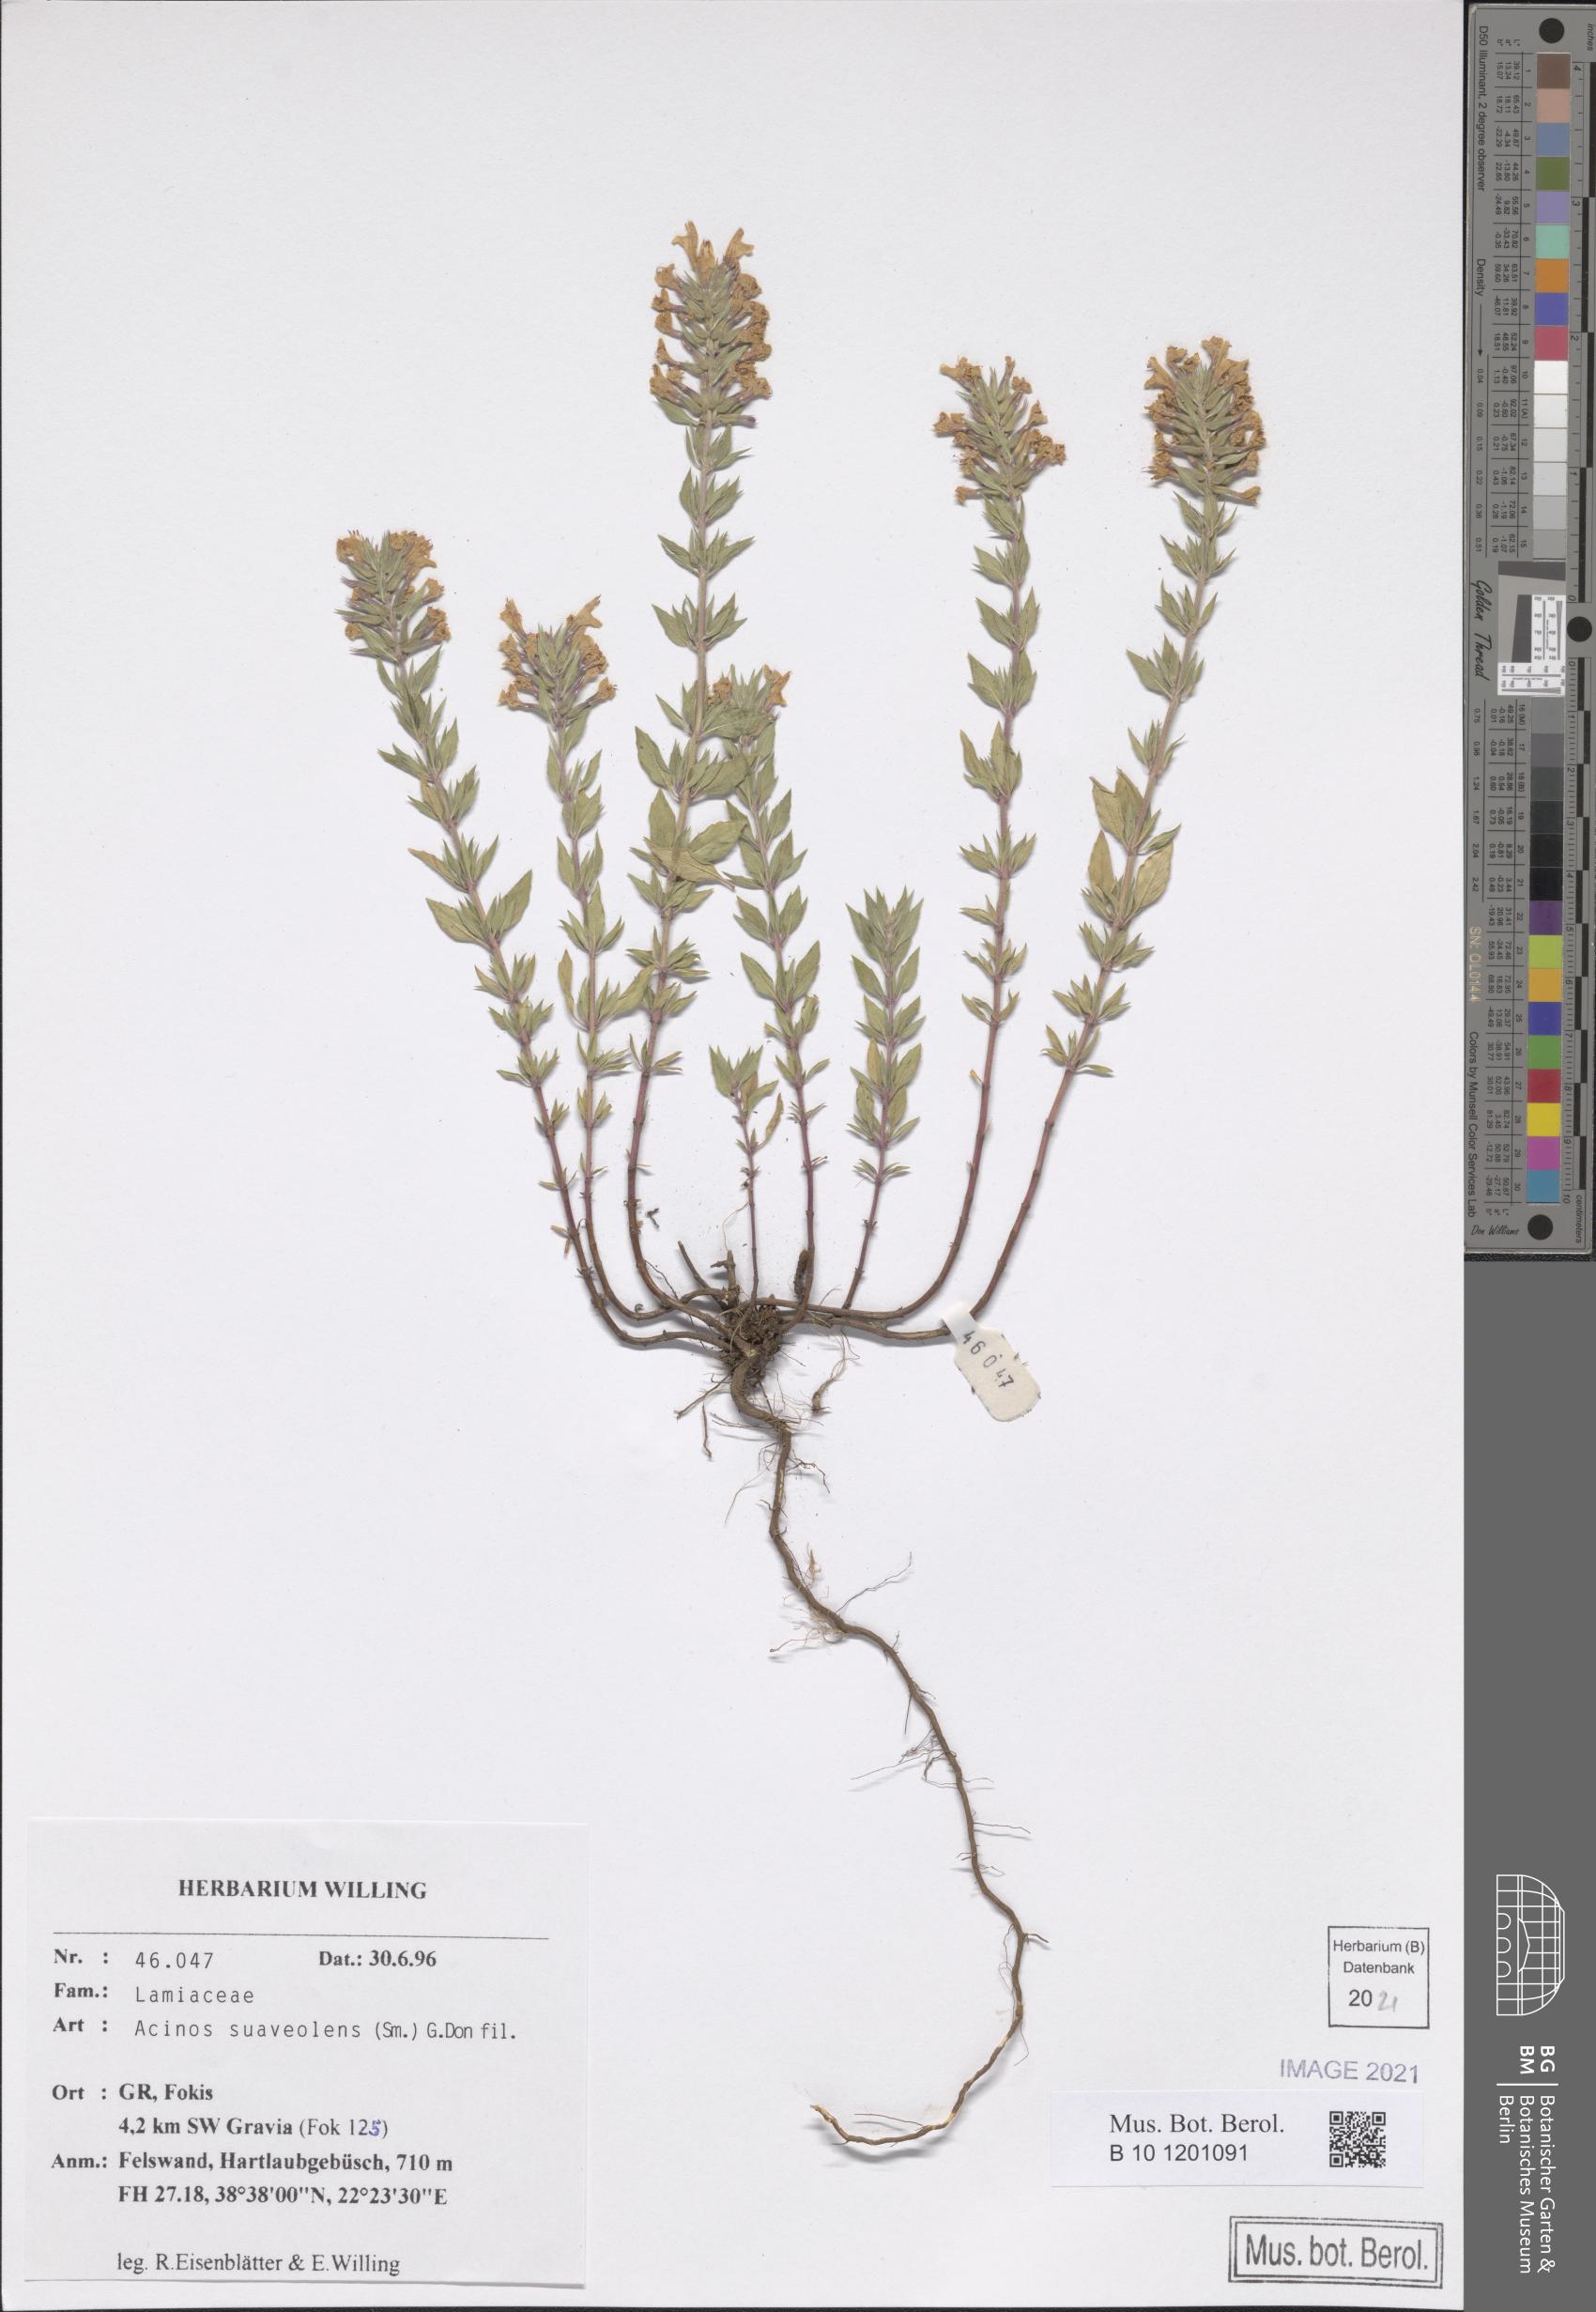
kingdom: Plantae
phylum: Tracheophyta
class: Magnoliopsida
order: Lamiales
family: Lamiaceae
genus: Clinopodium
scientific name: Clinopodium suaveolens
